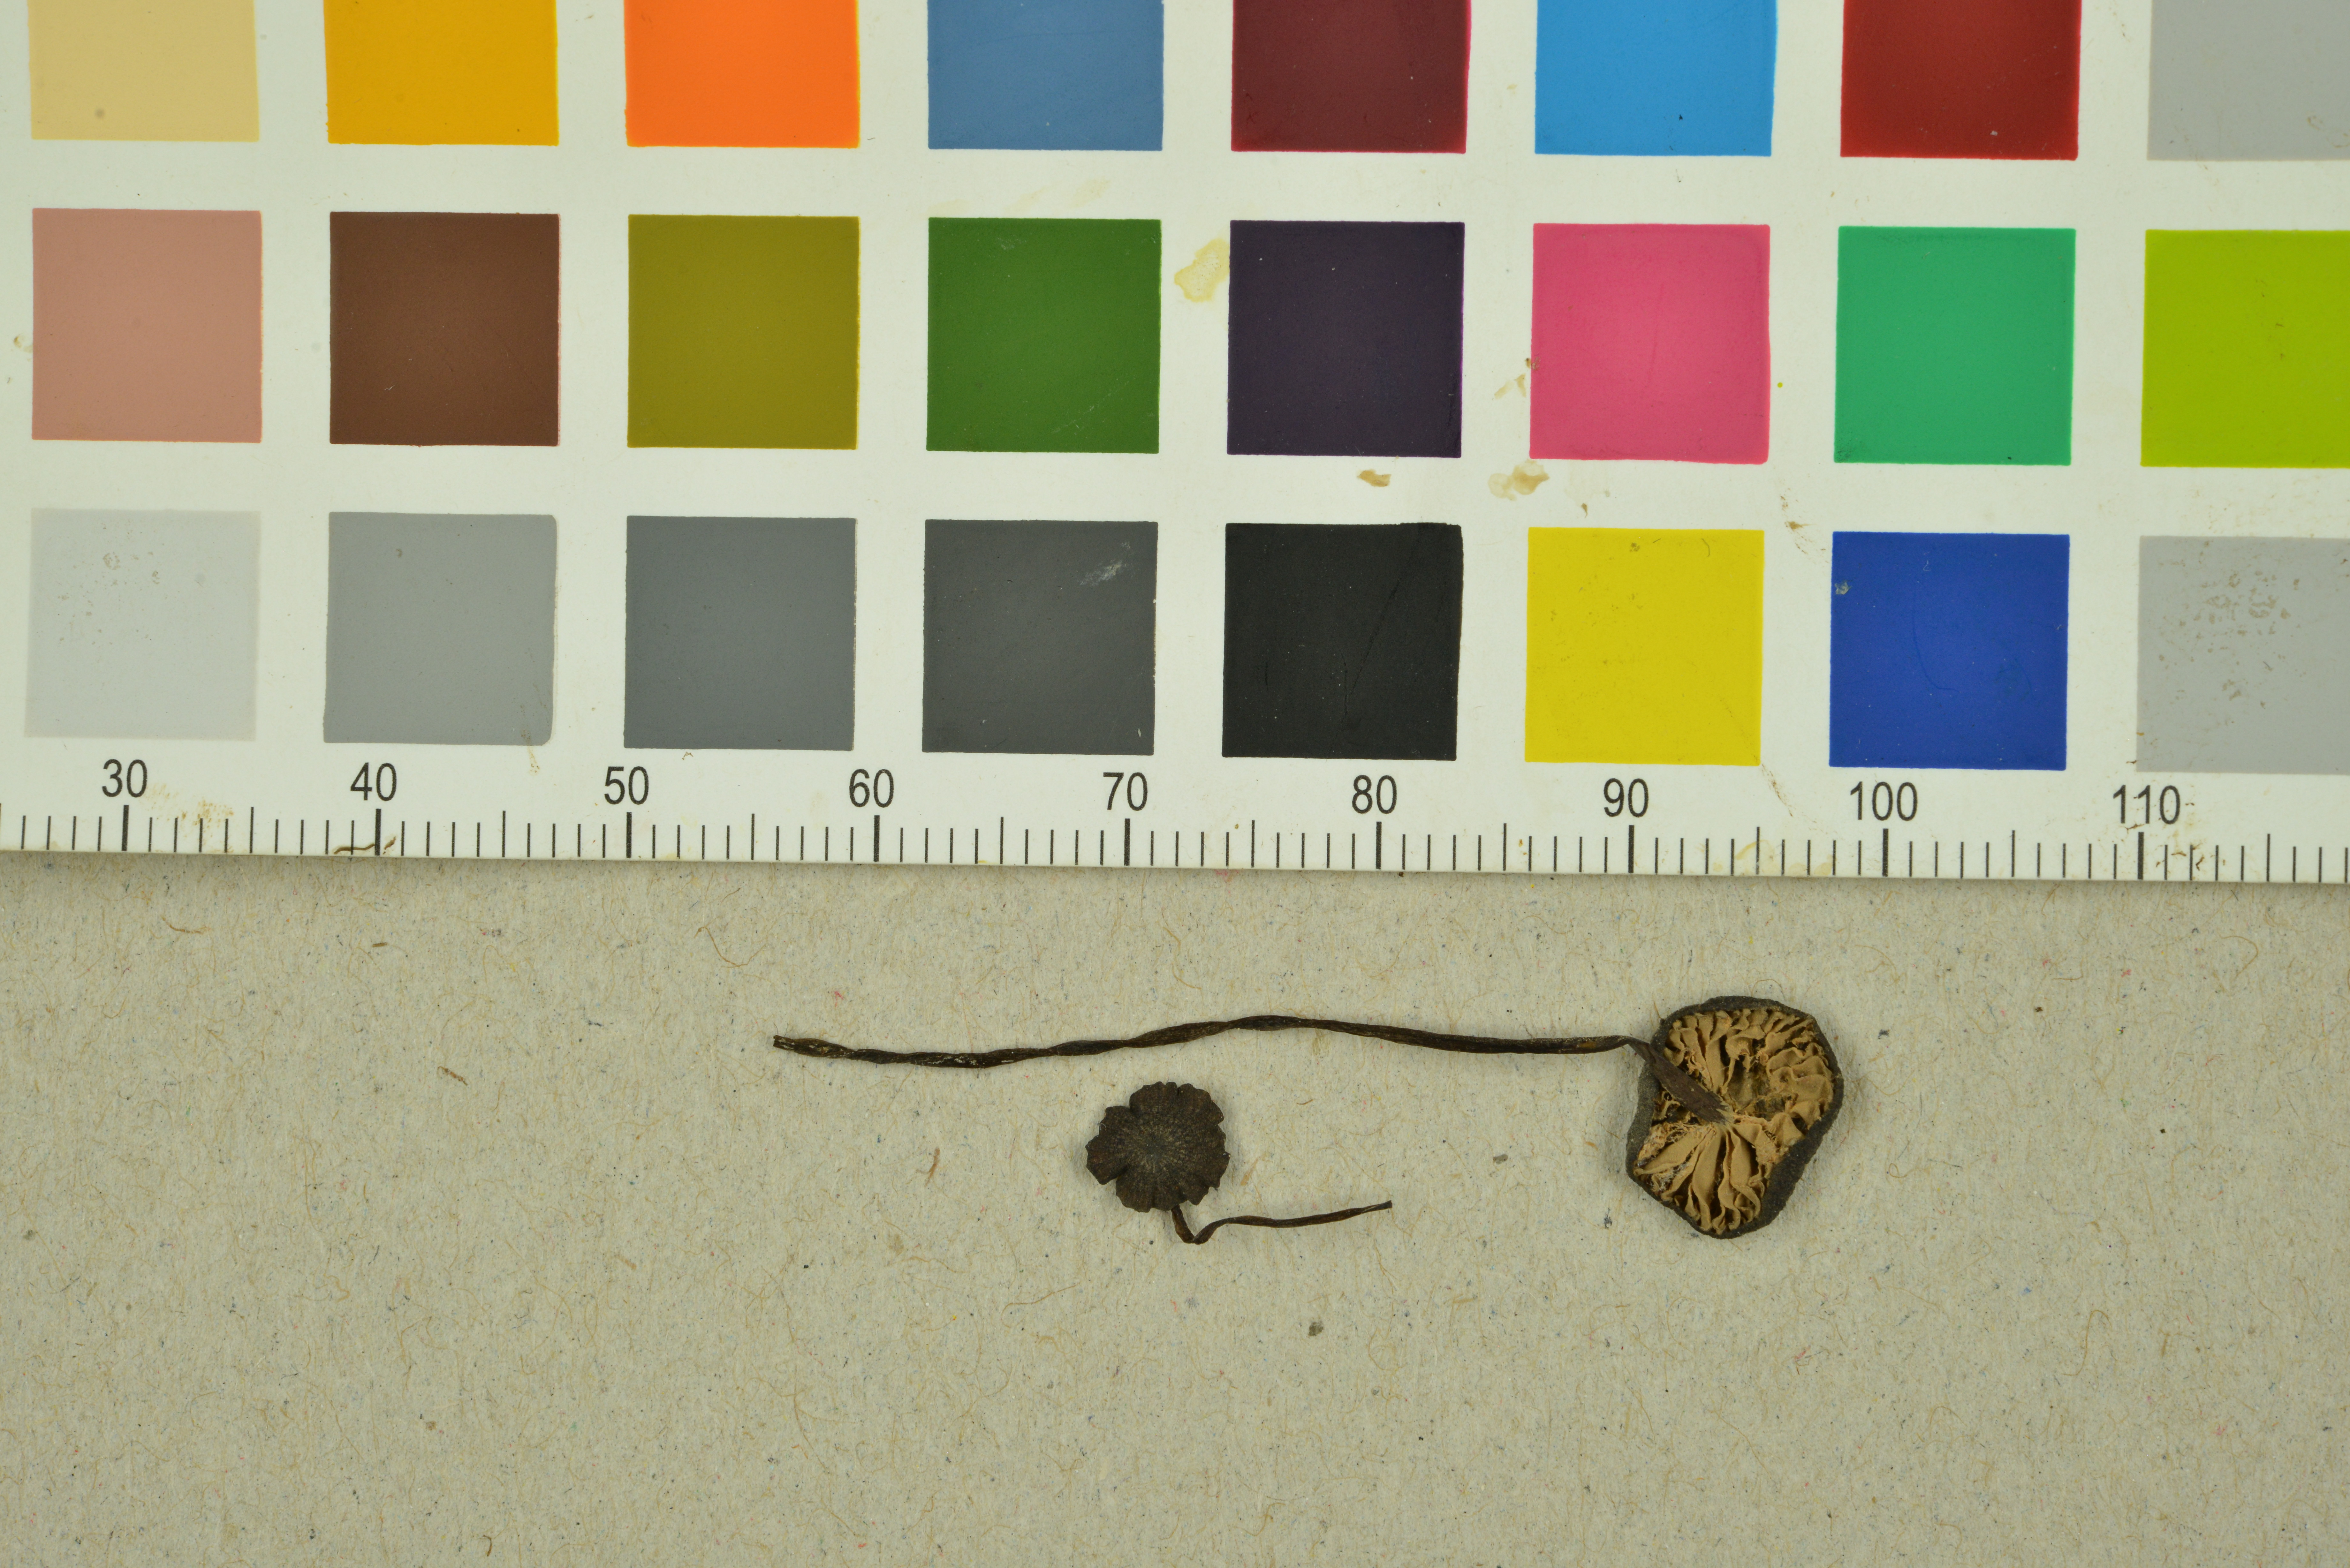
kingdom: Fungi
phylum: Basidiomycota
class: Agaricomycetes
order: Agaricales
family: Entolomataceae
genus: Entoloma
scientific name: Entoloma poliopus
